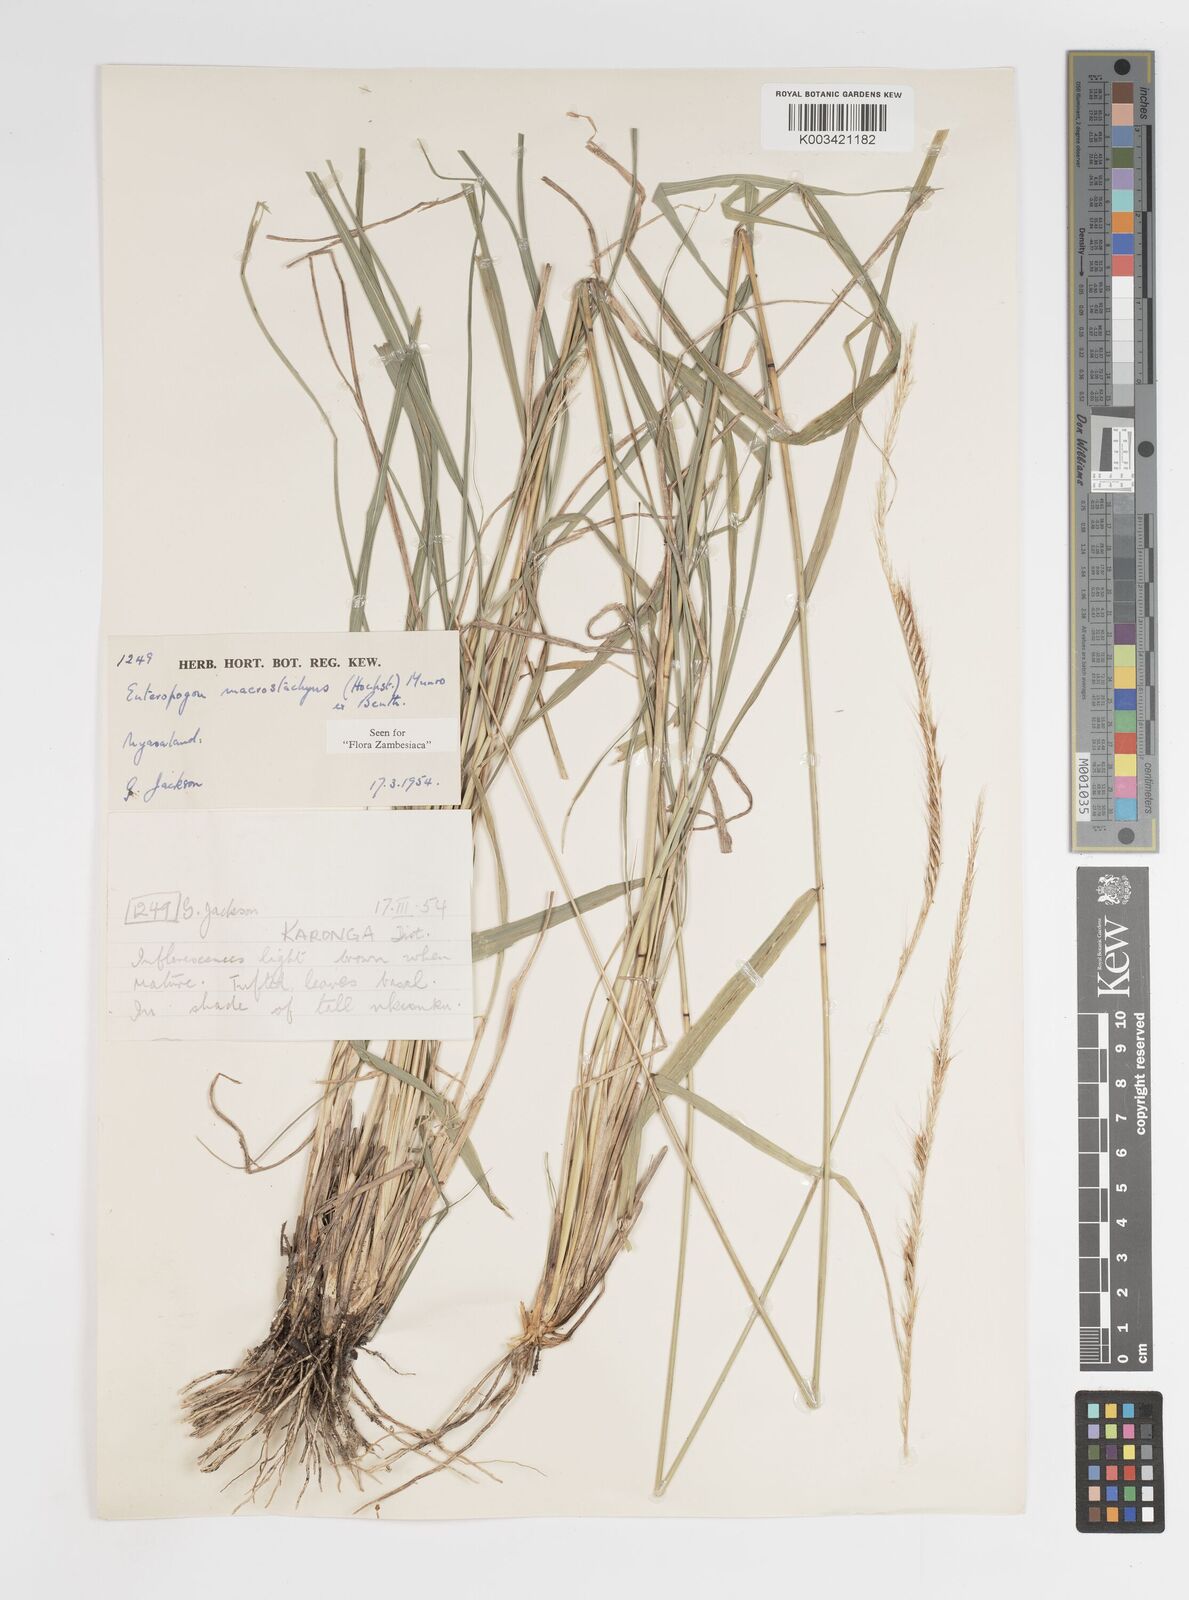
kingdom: Plantae
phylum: Tracheophyta
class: Liliopsida
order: Poales
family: Poaceae
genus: Enteropogon
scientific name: Enteropogon macrostachyus
